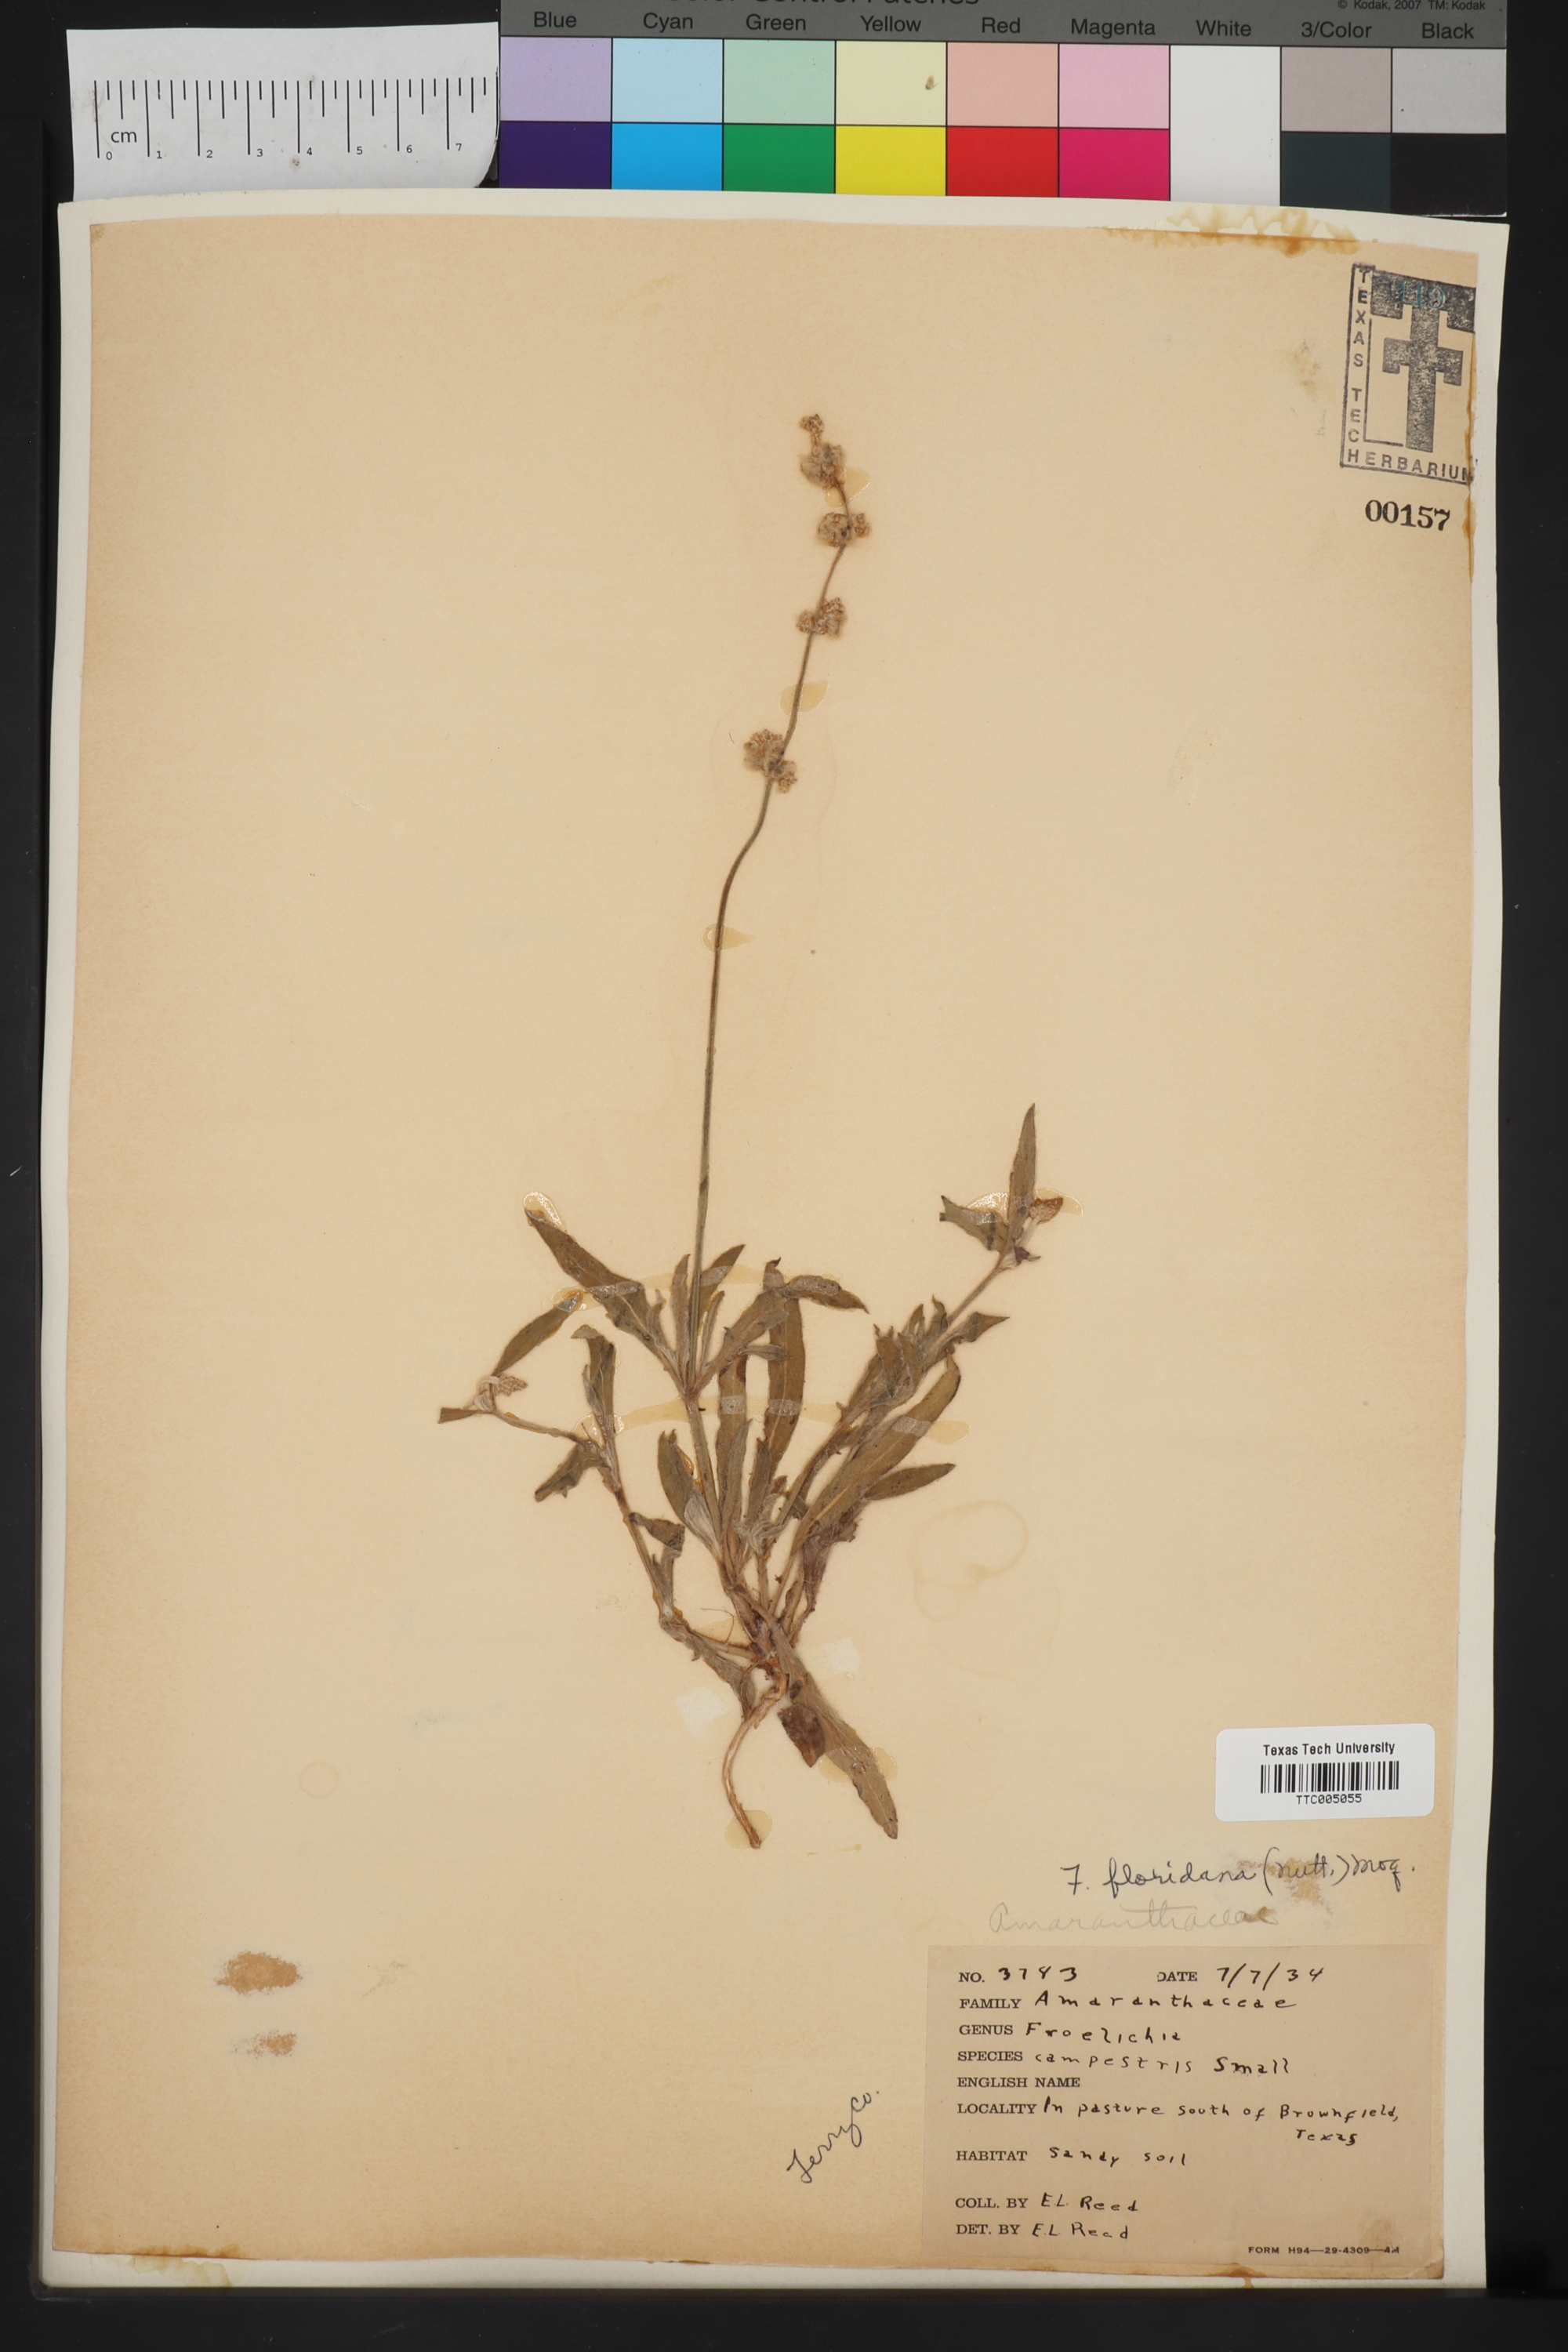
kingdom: Plantae
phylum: Tracheophyta
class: Magnoliopsida
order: Caryophyllales
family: Amaranthaceae
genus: Froelichia
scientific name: Froelichia floridana
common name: Florida snake-cotton
